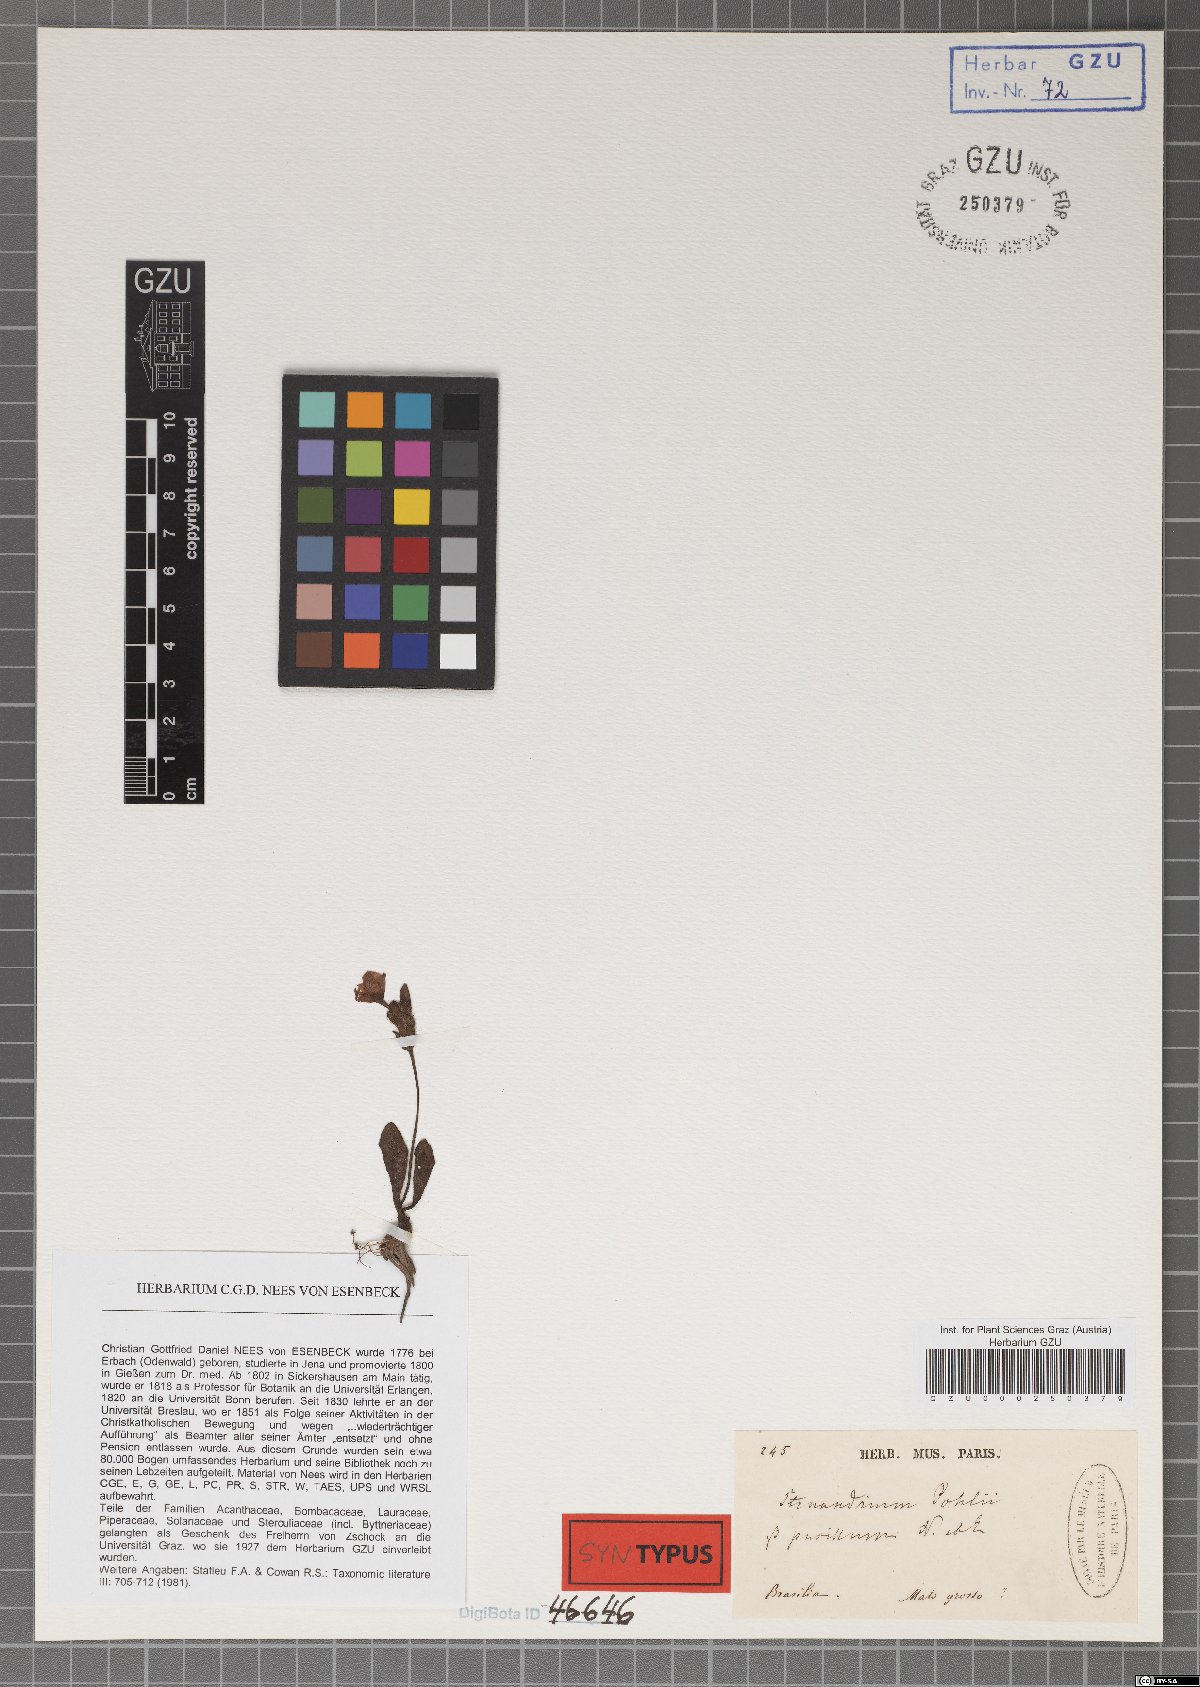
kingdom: Plantae
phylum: Tracheophyta
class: Magnoliopsida
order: Lamiales
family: Acanthaceae
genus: Stenandrium
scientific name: Stenandrium pohlii
